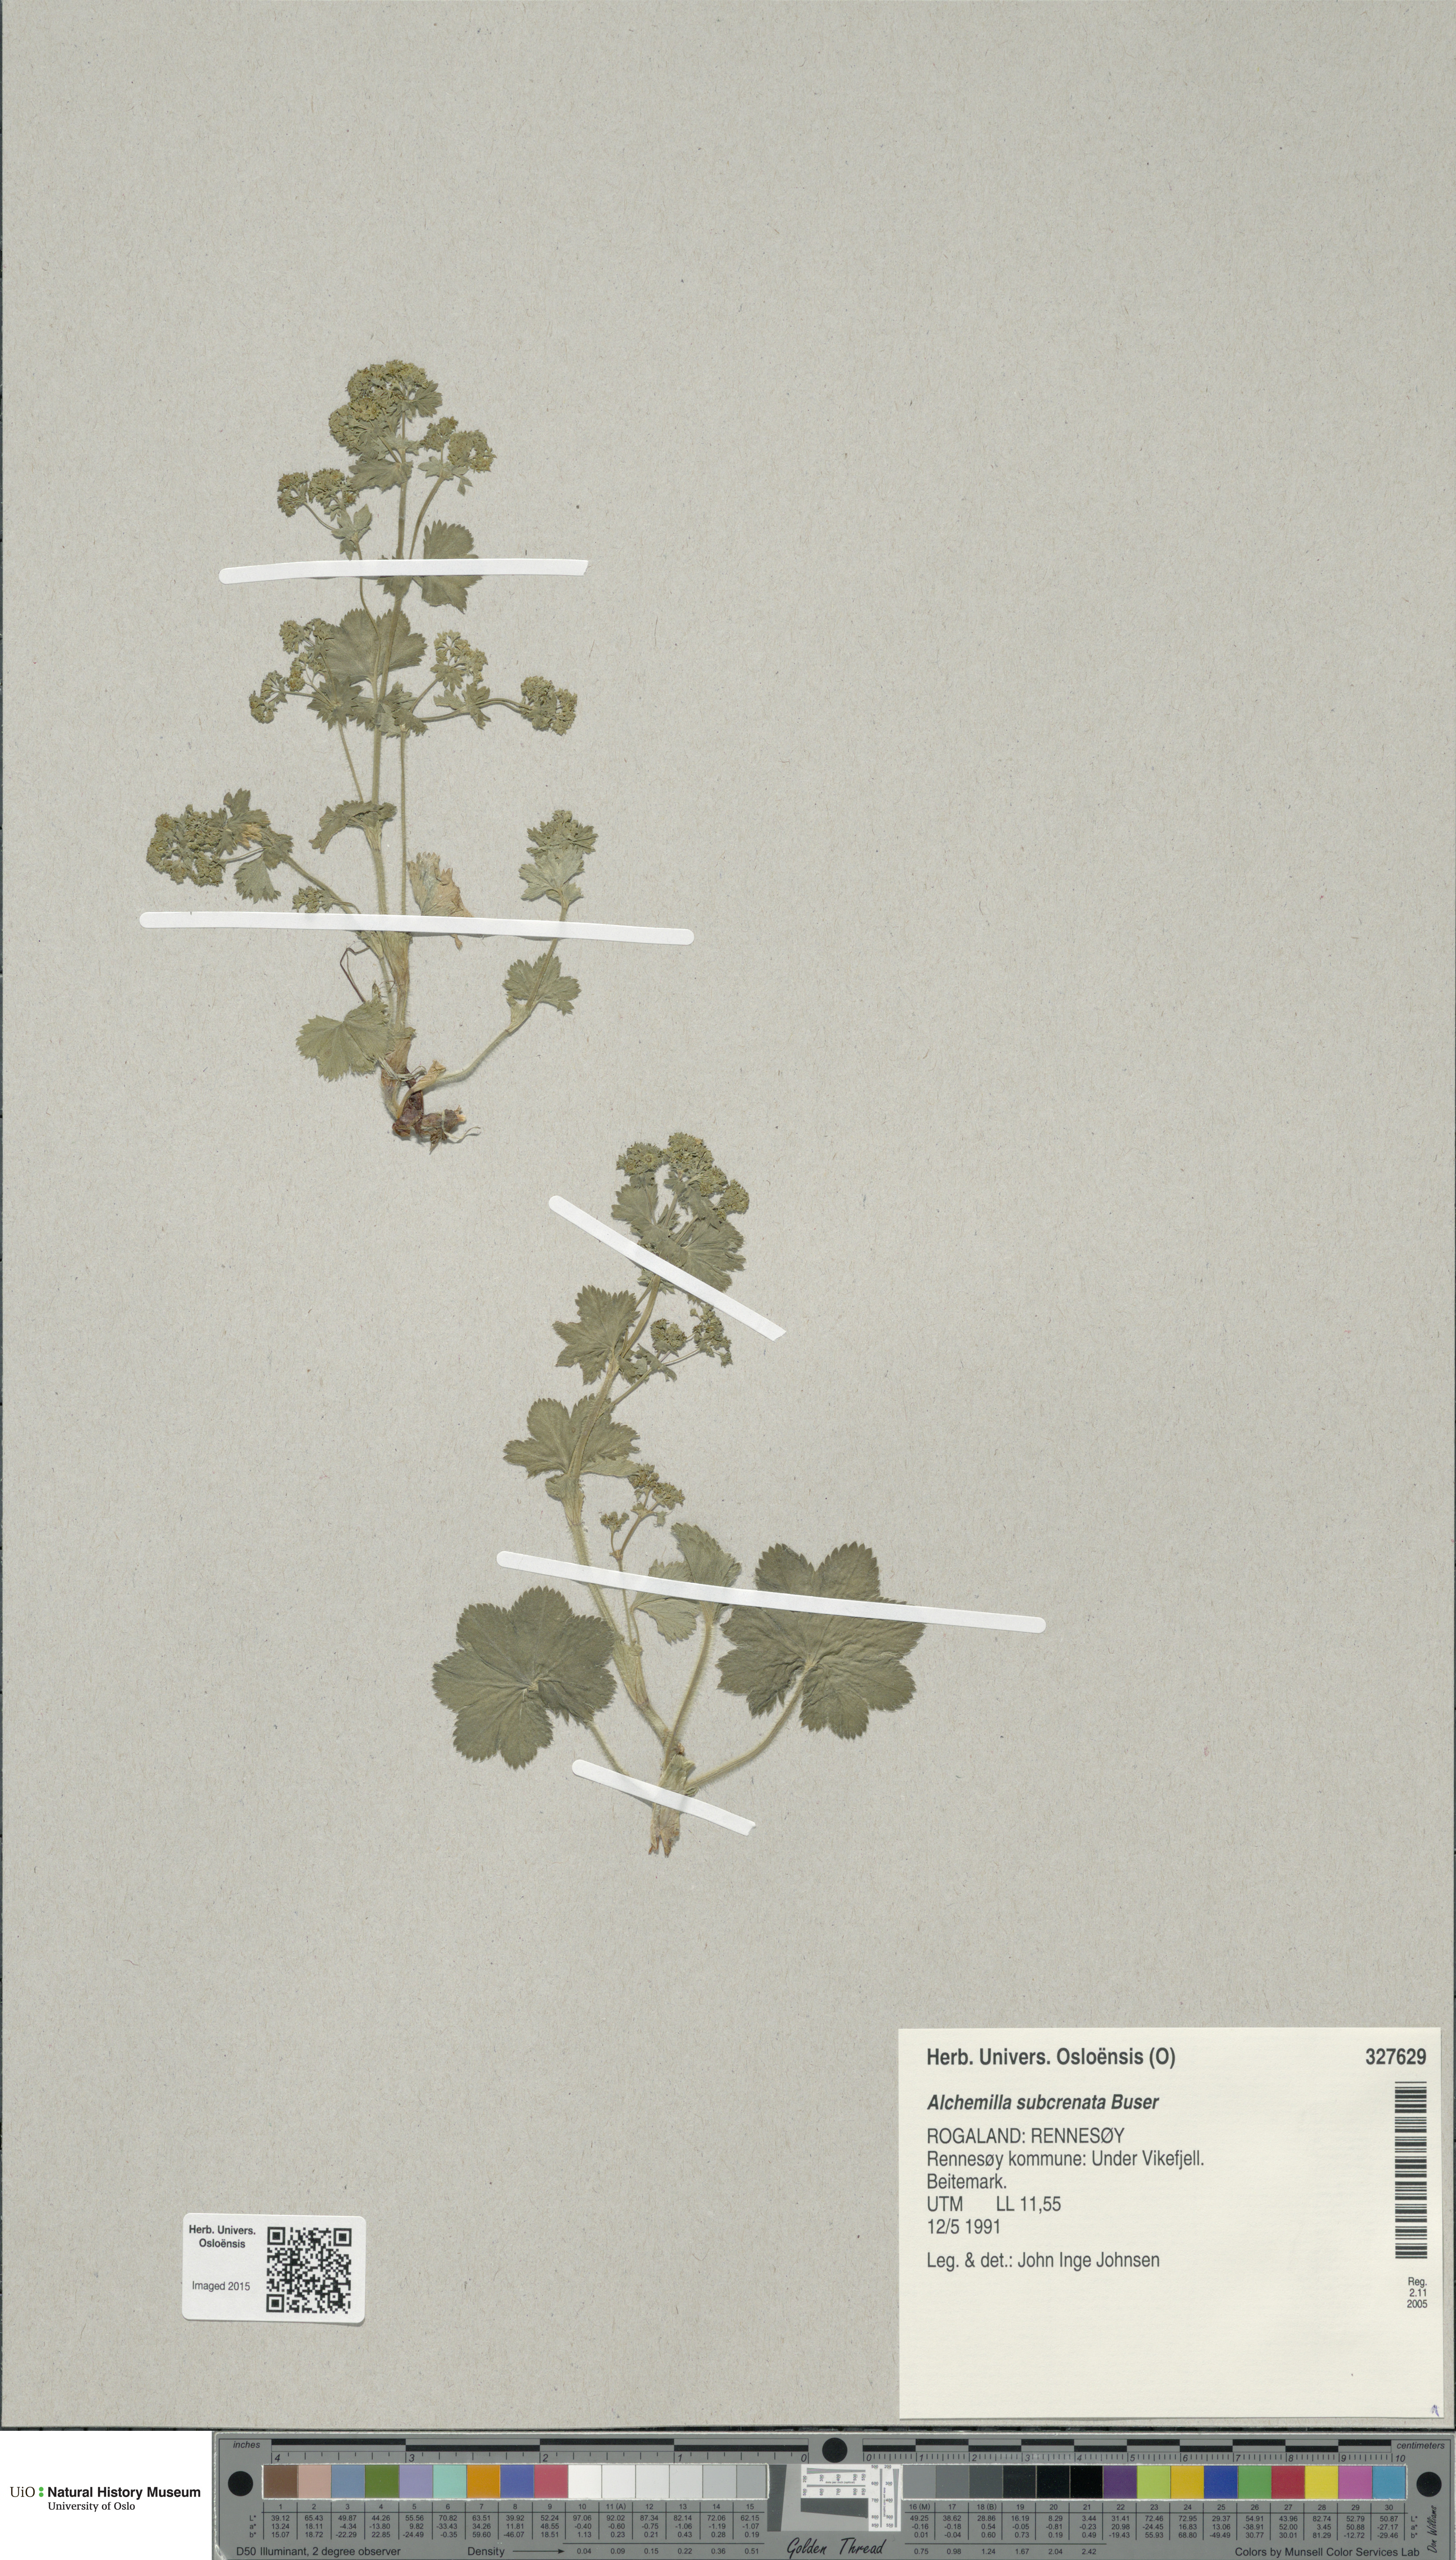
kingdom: Plantae
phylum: Tracheophyta
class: Magnoliopsida
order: Rosales
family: Rosaceae
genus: Alchemilla
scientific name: Alchemilla subcrenata
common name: Broadtooth lady's mantle
